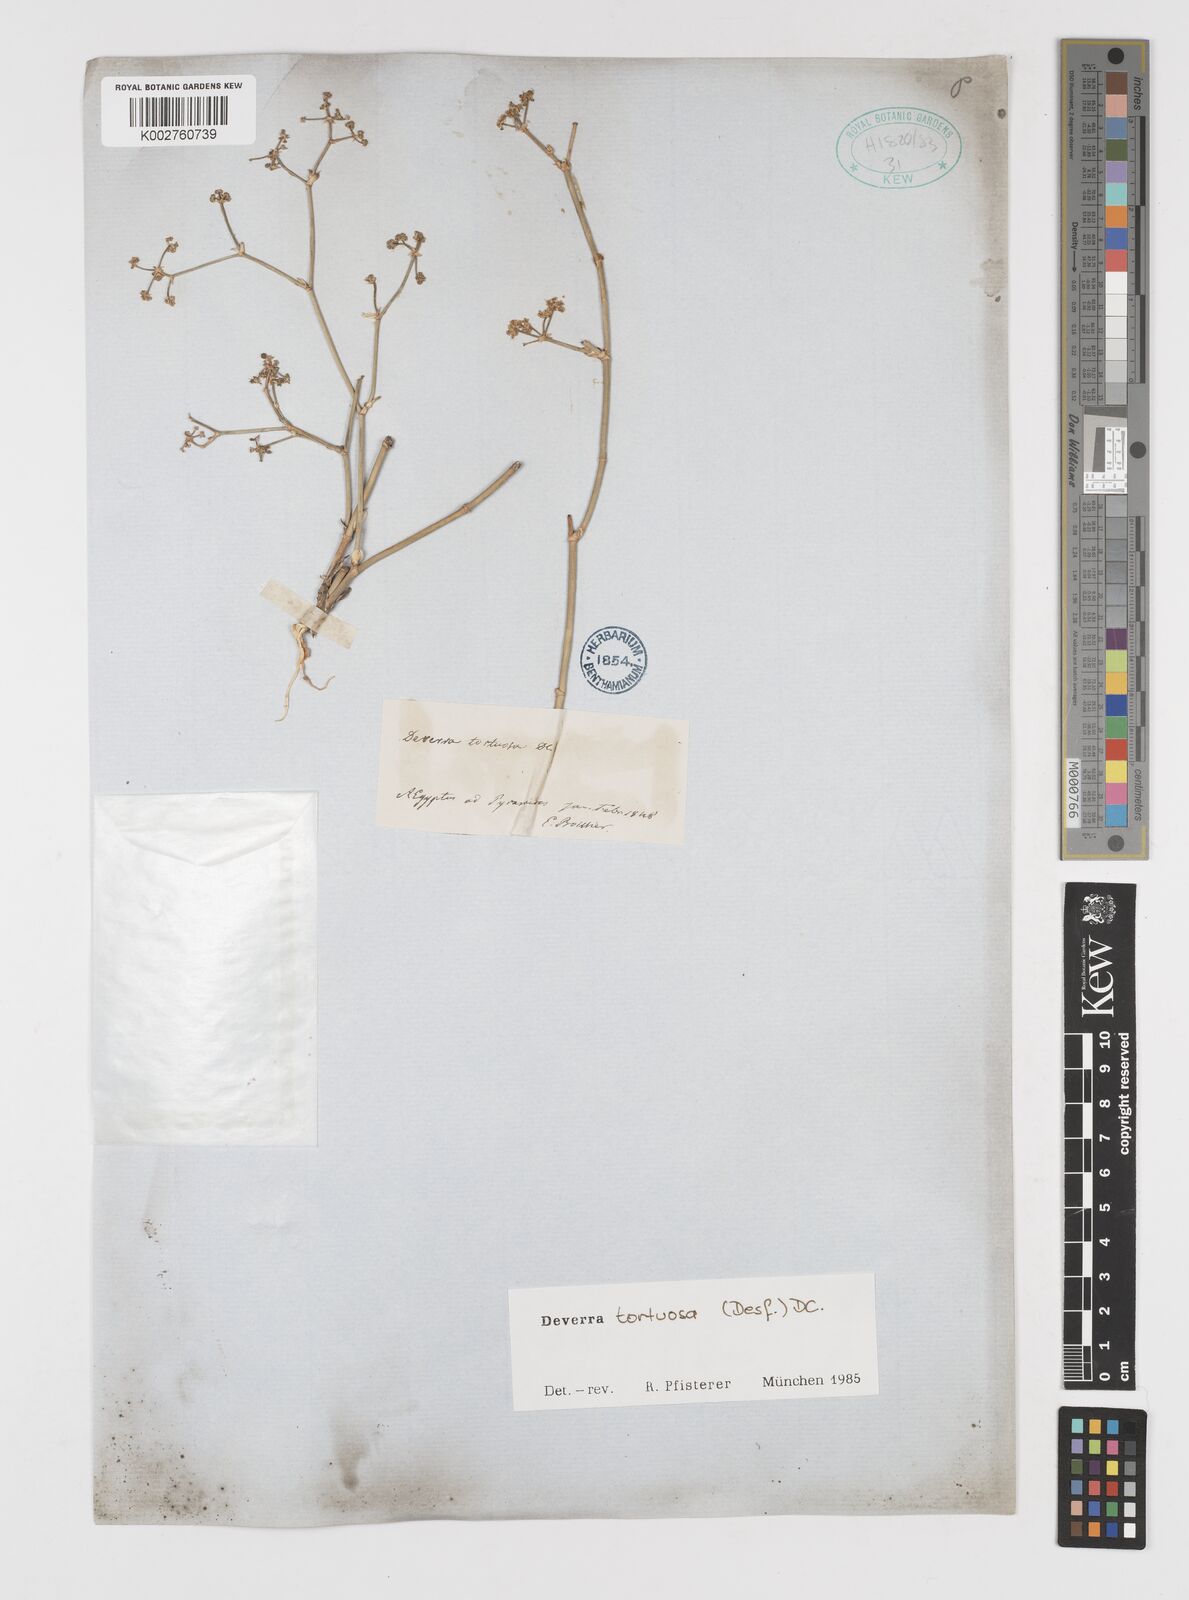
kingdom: Plantae
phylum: Tracheophyta
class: Magnoliopsida
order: Apiales
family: Apiaceae
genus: Deverra
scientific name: Deverra tortuosa
